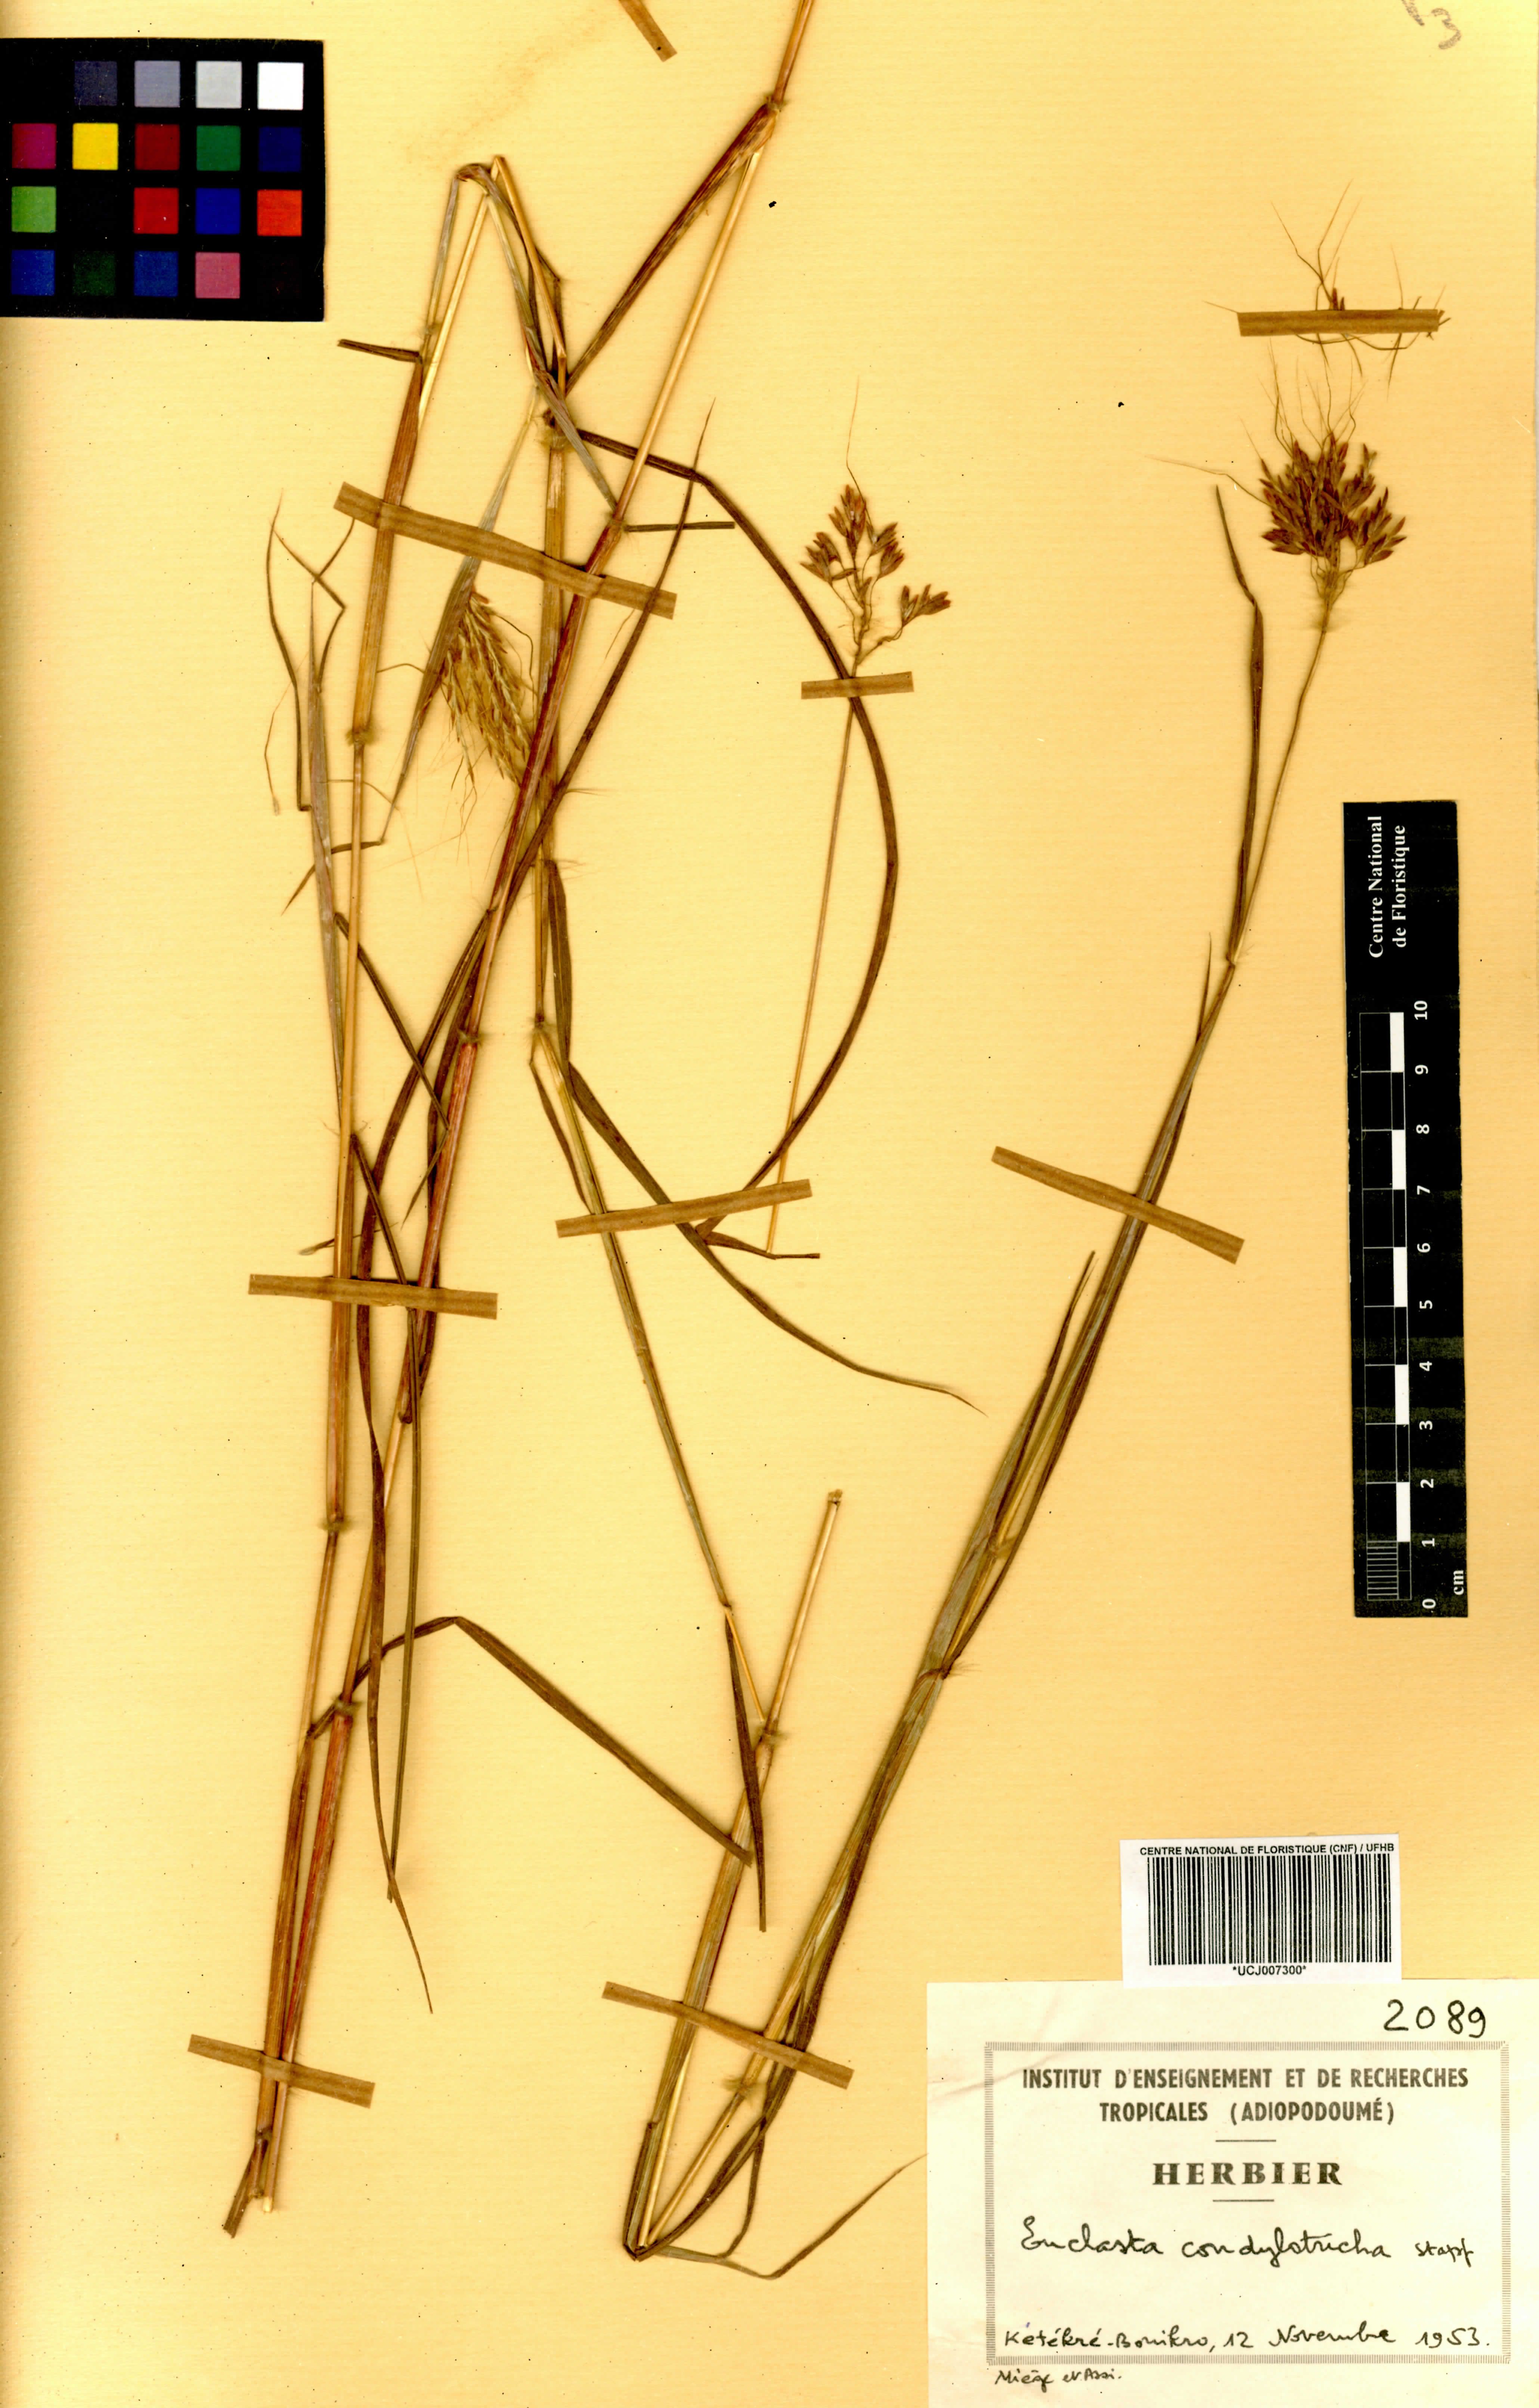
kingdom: Plantae
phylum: Tracheophyta
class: Liliopsida
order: Poales
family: Poaceae
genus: Euclasta
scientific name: Euclasta condylotricha
